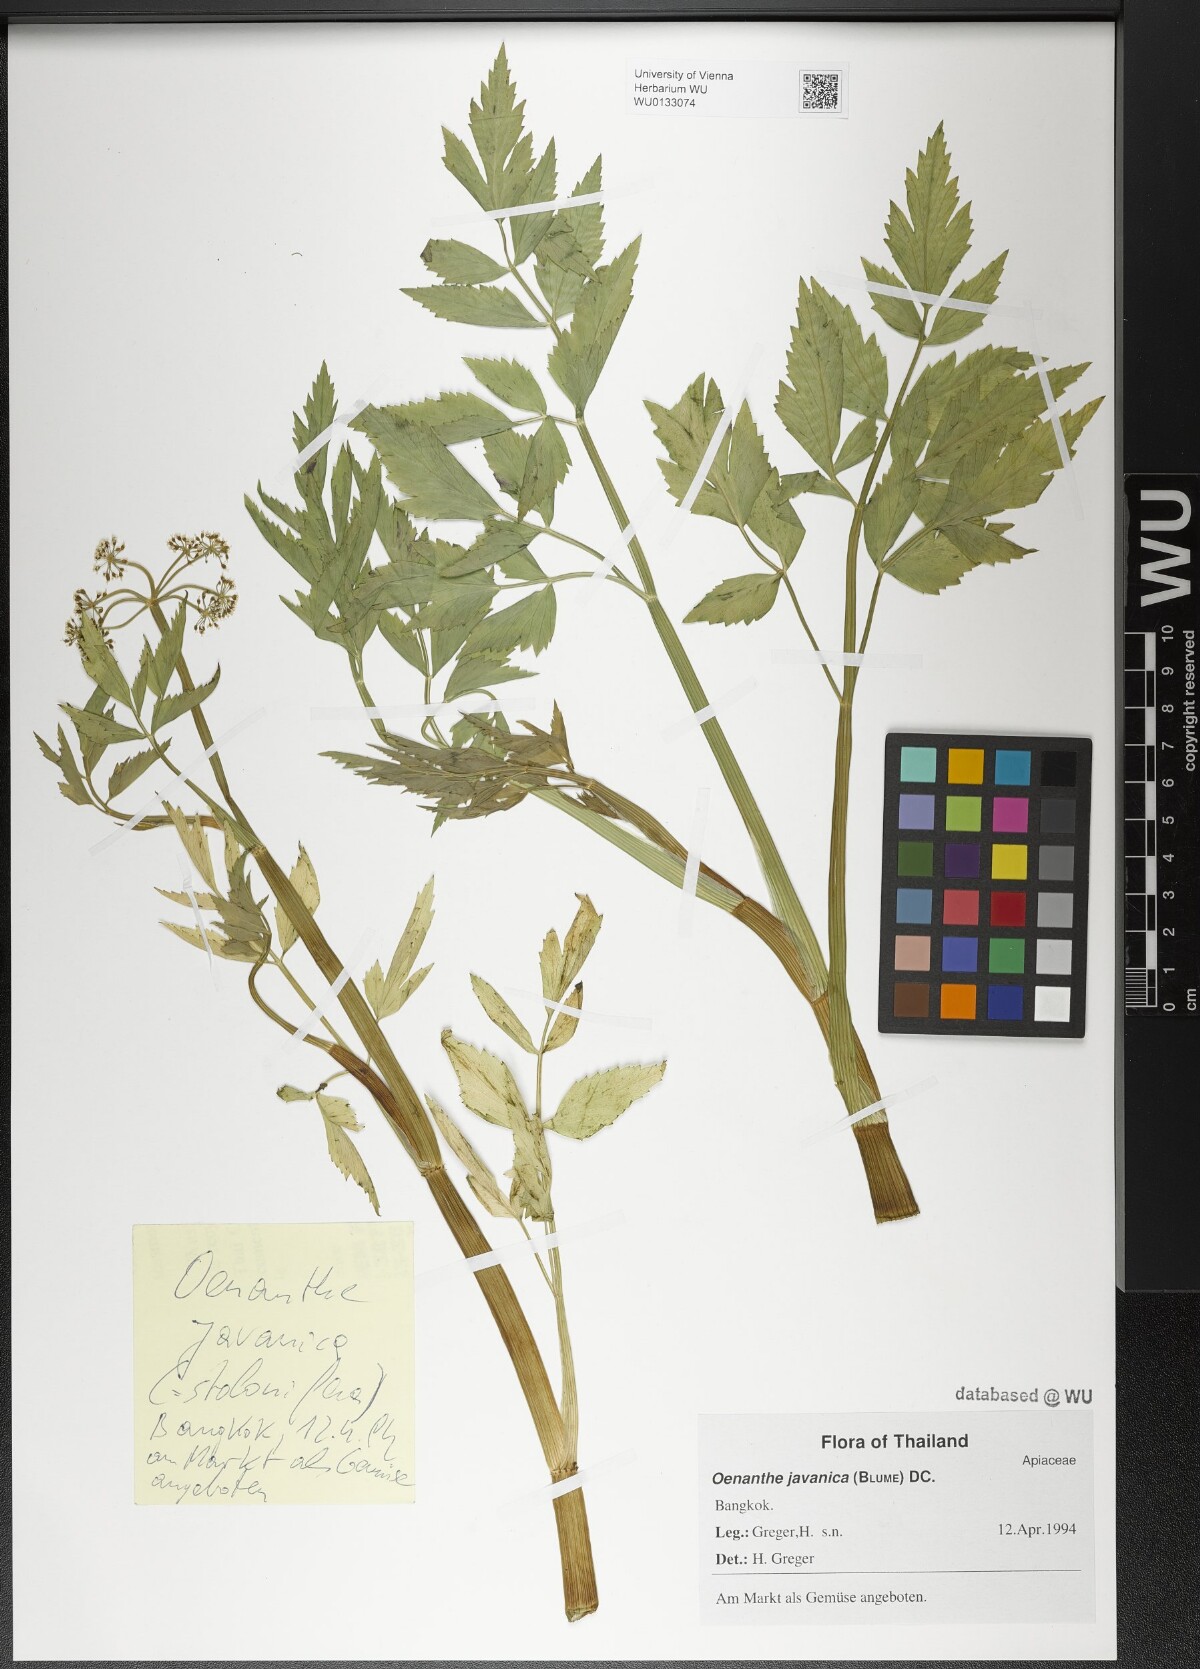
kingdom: Plantae
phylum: Tracheophyta
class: Magnoliopsida
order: Apiales
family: Apiaceae
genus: Oenanthe
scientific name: Oenanthe javanica
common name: Java water-dropwort
